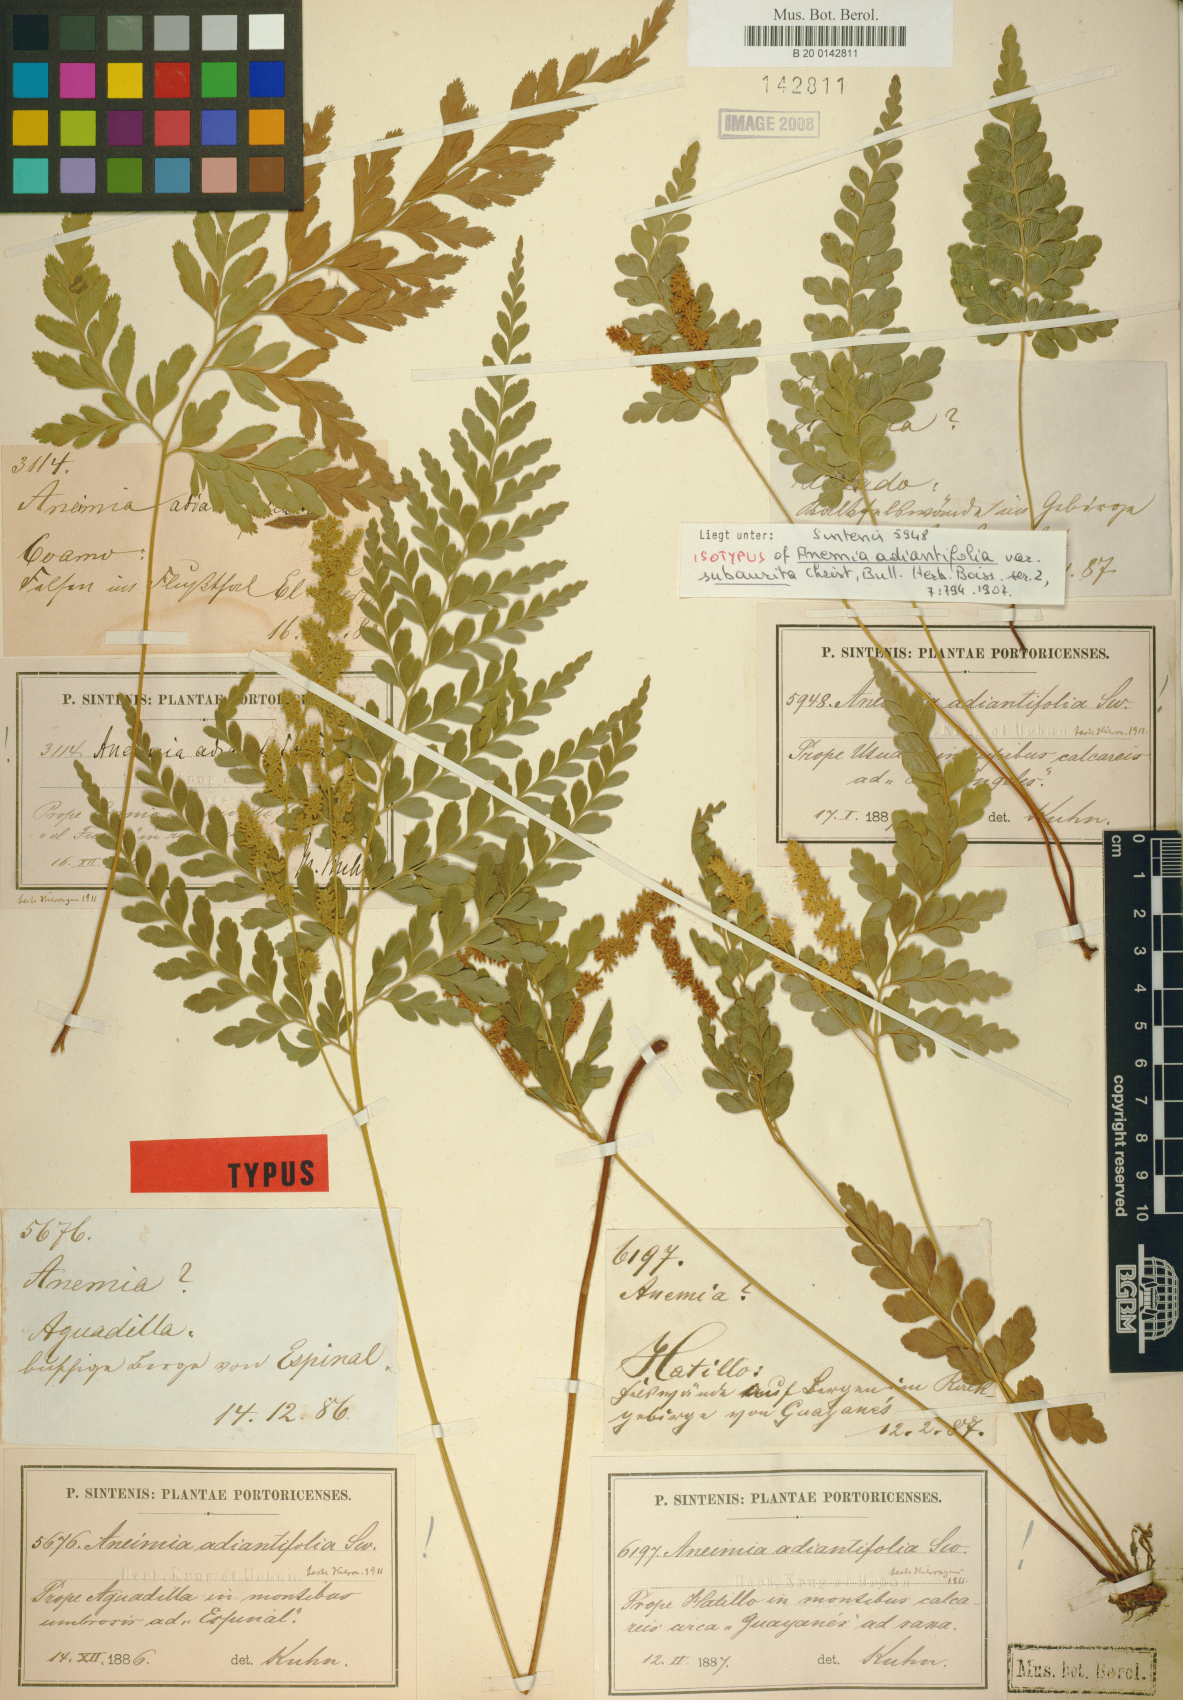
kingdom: Plantae
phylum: Tracheophyta
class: Polypodiopsida
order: Schizaeales
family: Anemiaceae
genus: Anemia
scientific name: Anemia adiantifolia
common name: Pine fern
